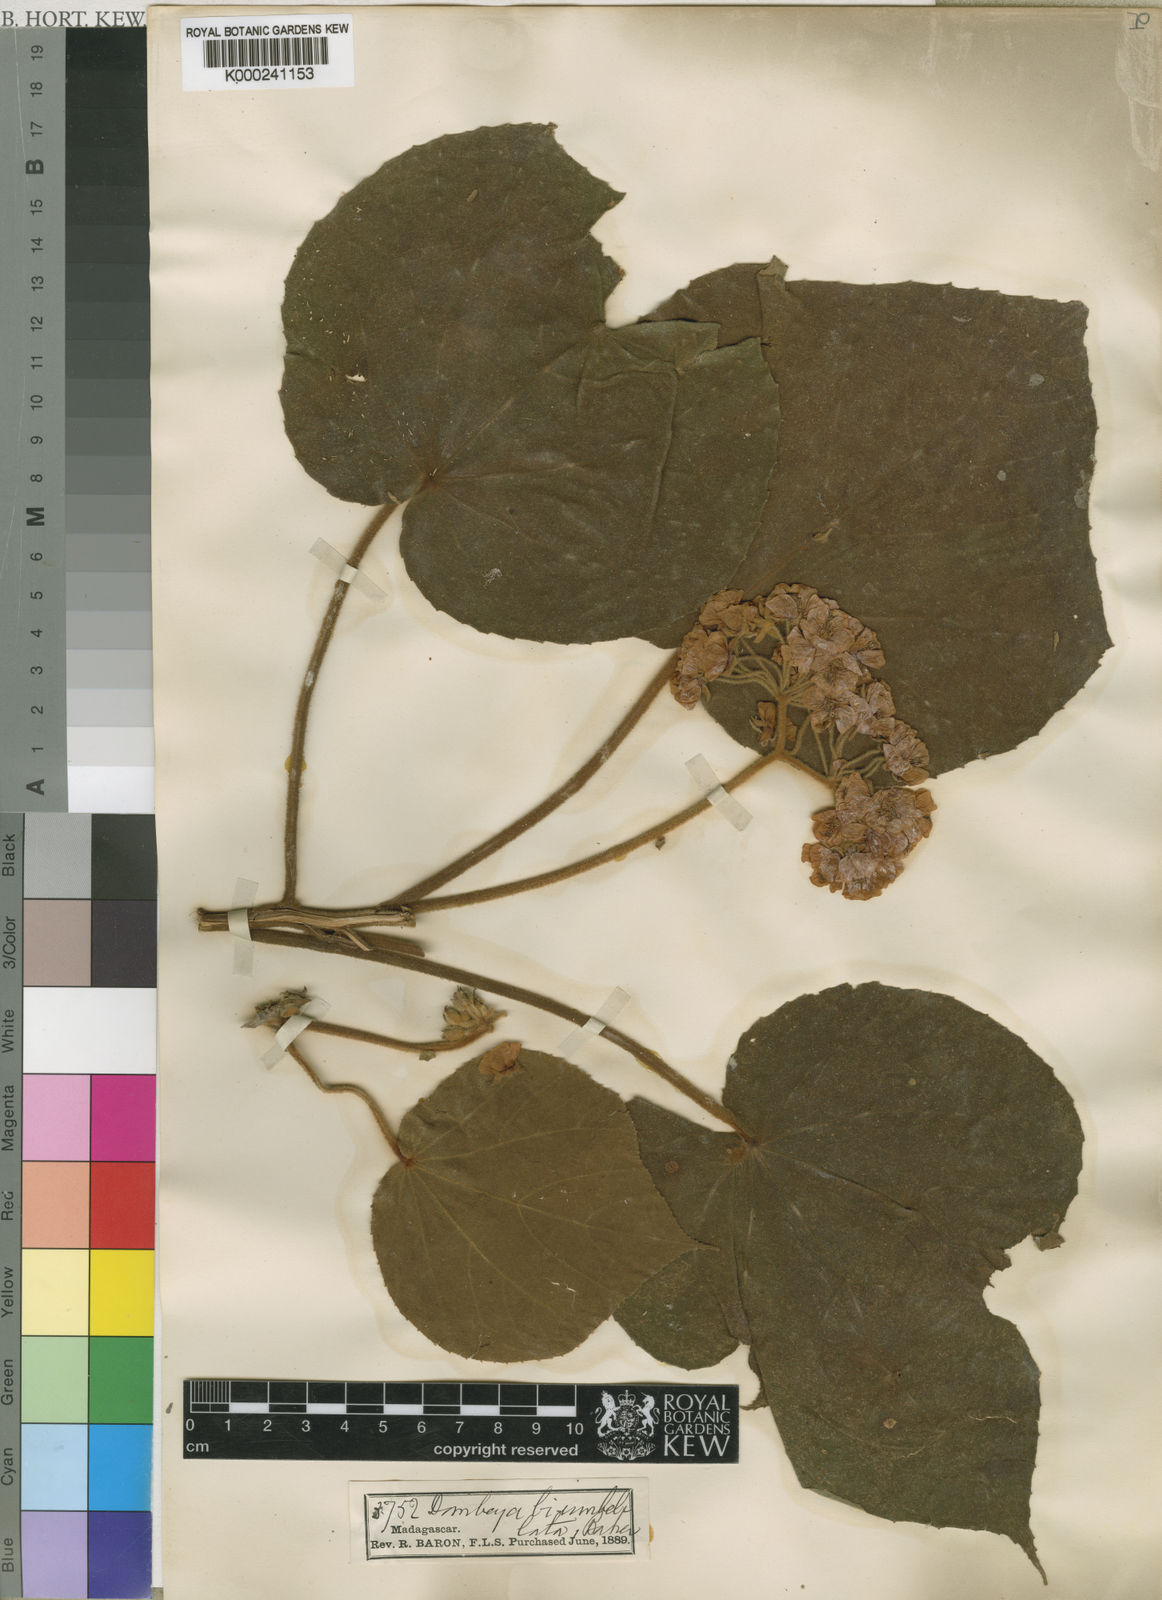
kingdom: Plantae
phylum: Tracheophyta
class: Magnoliopsida
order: Malvales
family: Malvaceae
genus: Dombeya
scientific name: Dombeya biumbellata
